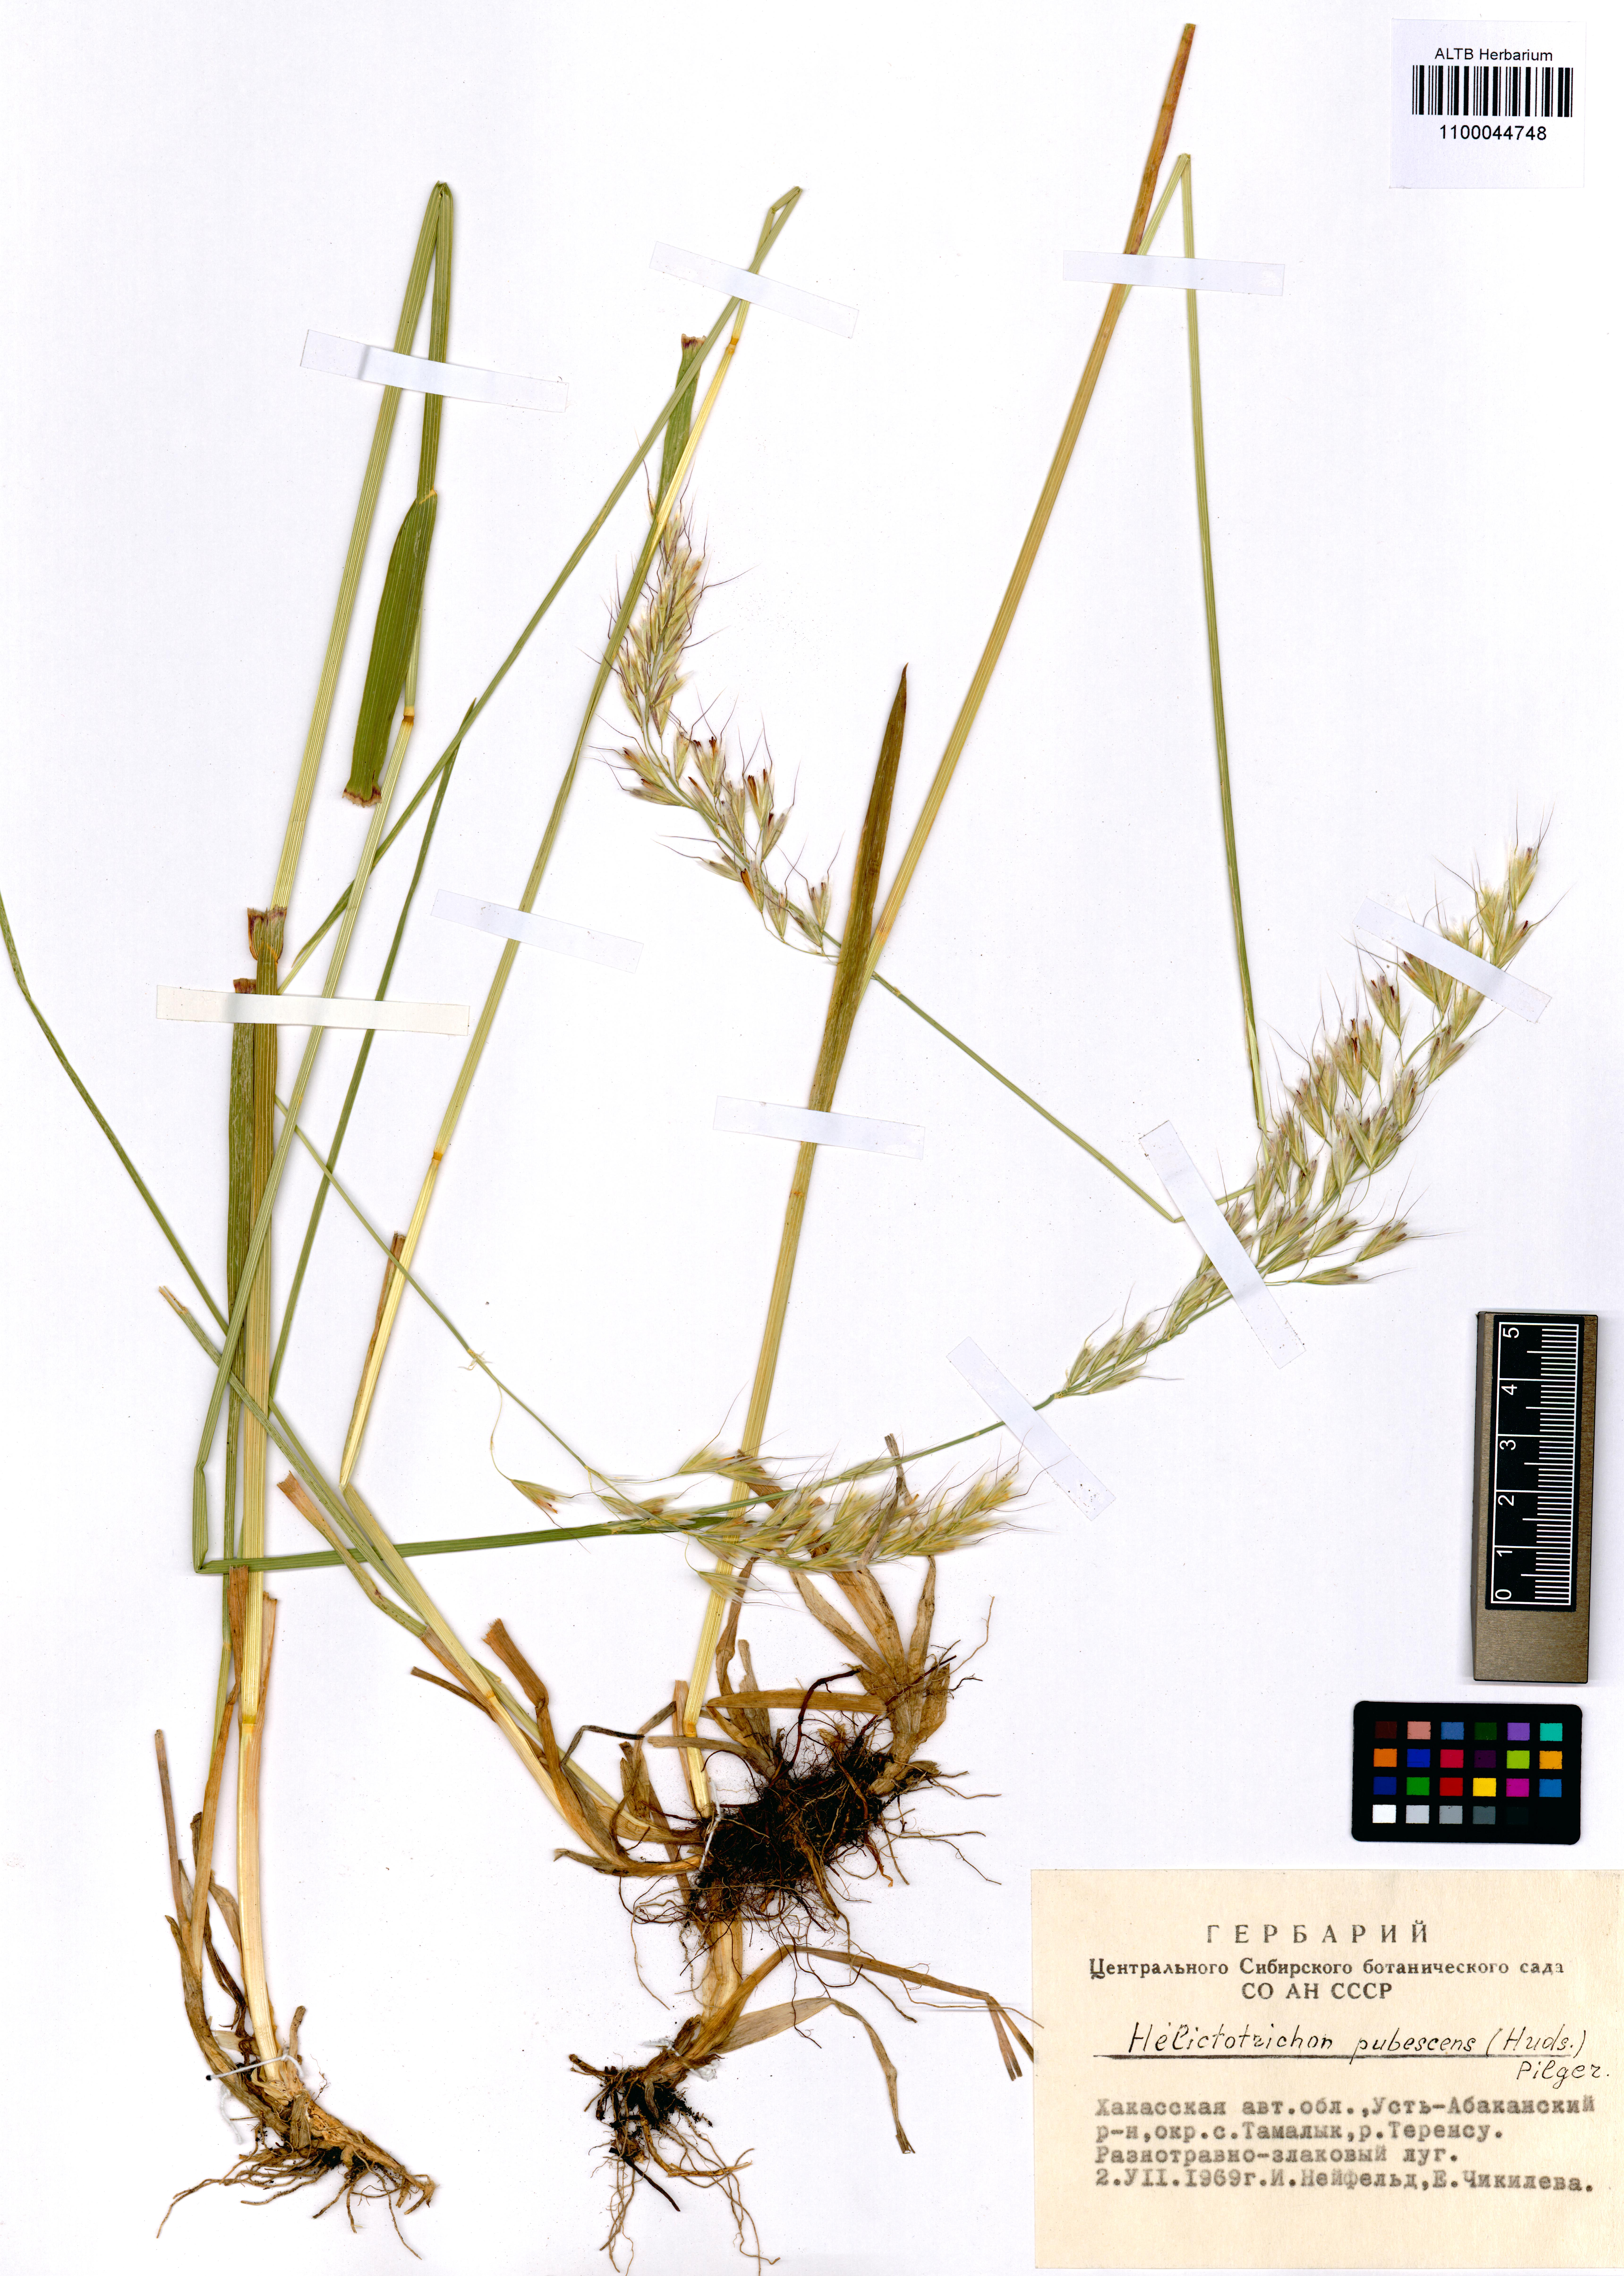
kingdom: Plantae
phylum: Tracheophyta
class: Liliopsida
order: Poales
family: Poaceae
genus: Avenula
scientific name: Avenula pubescens
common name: Downy alpine oatgrass
